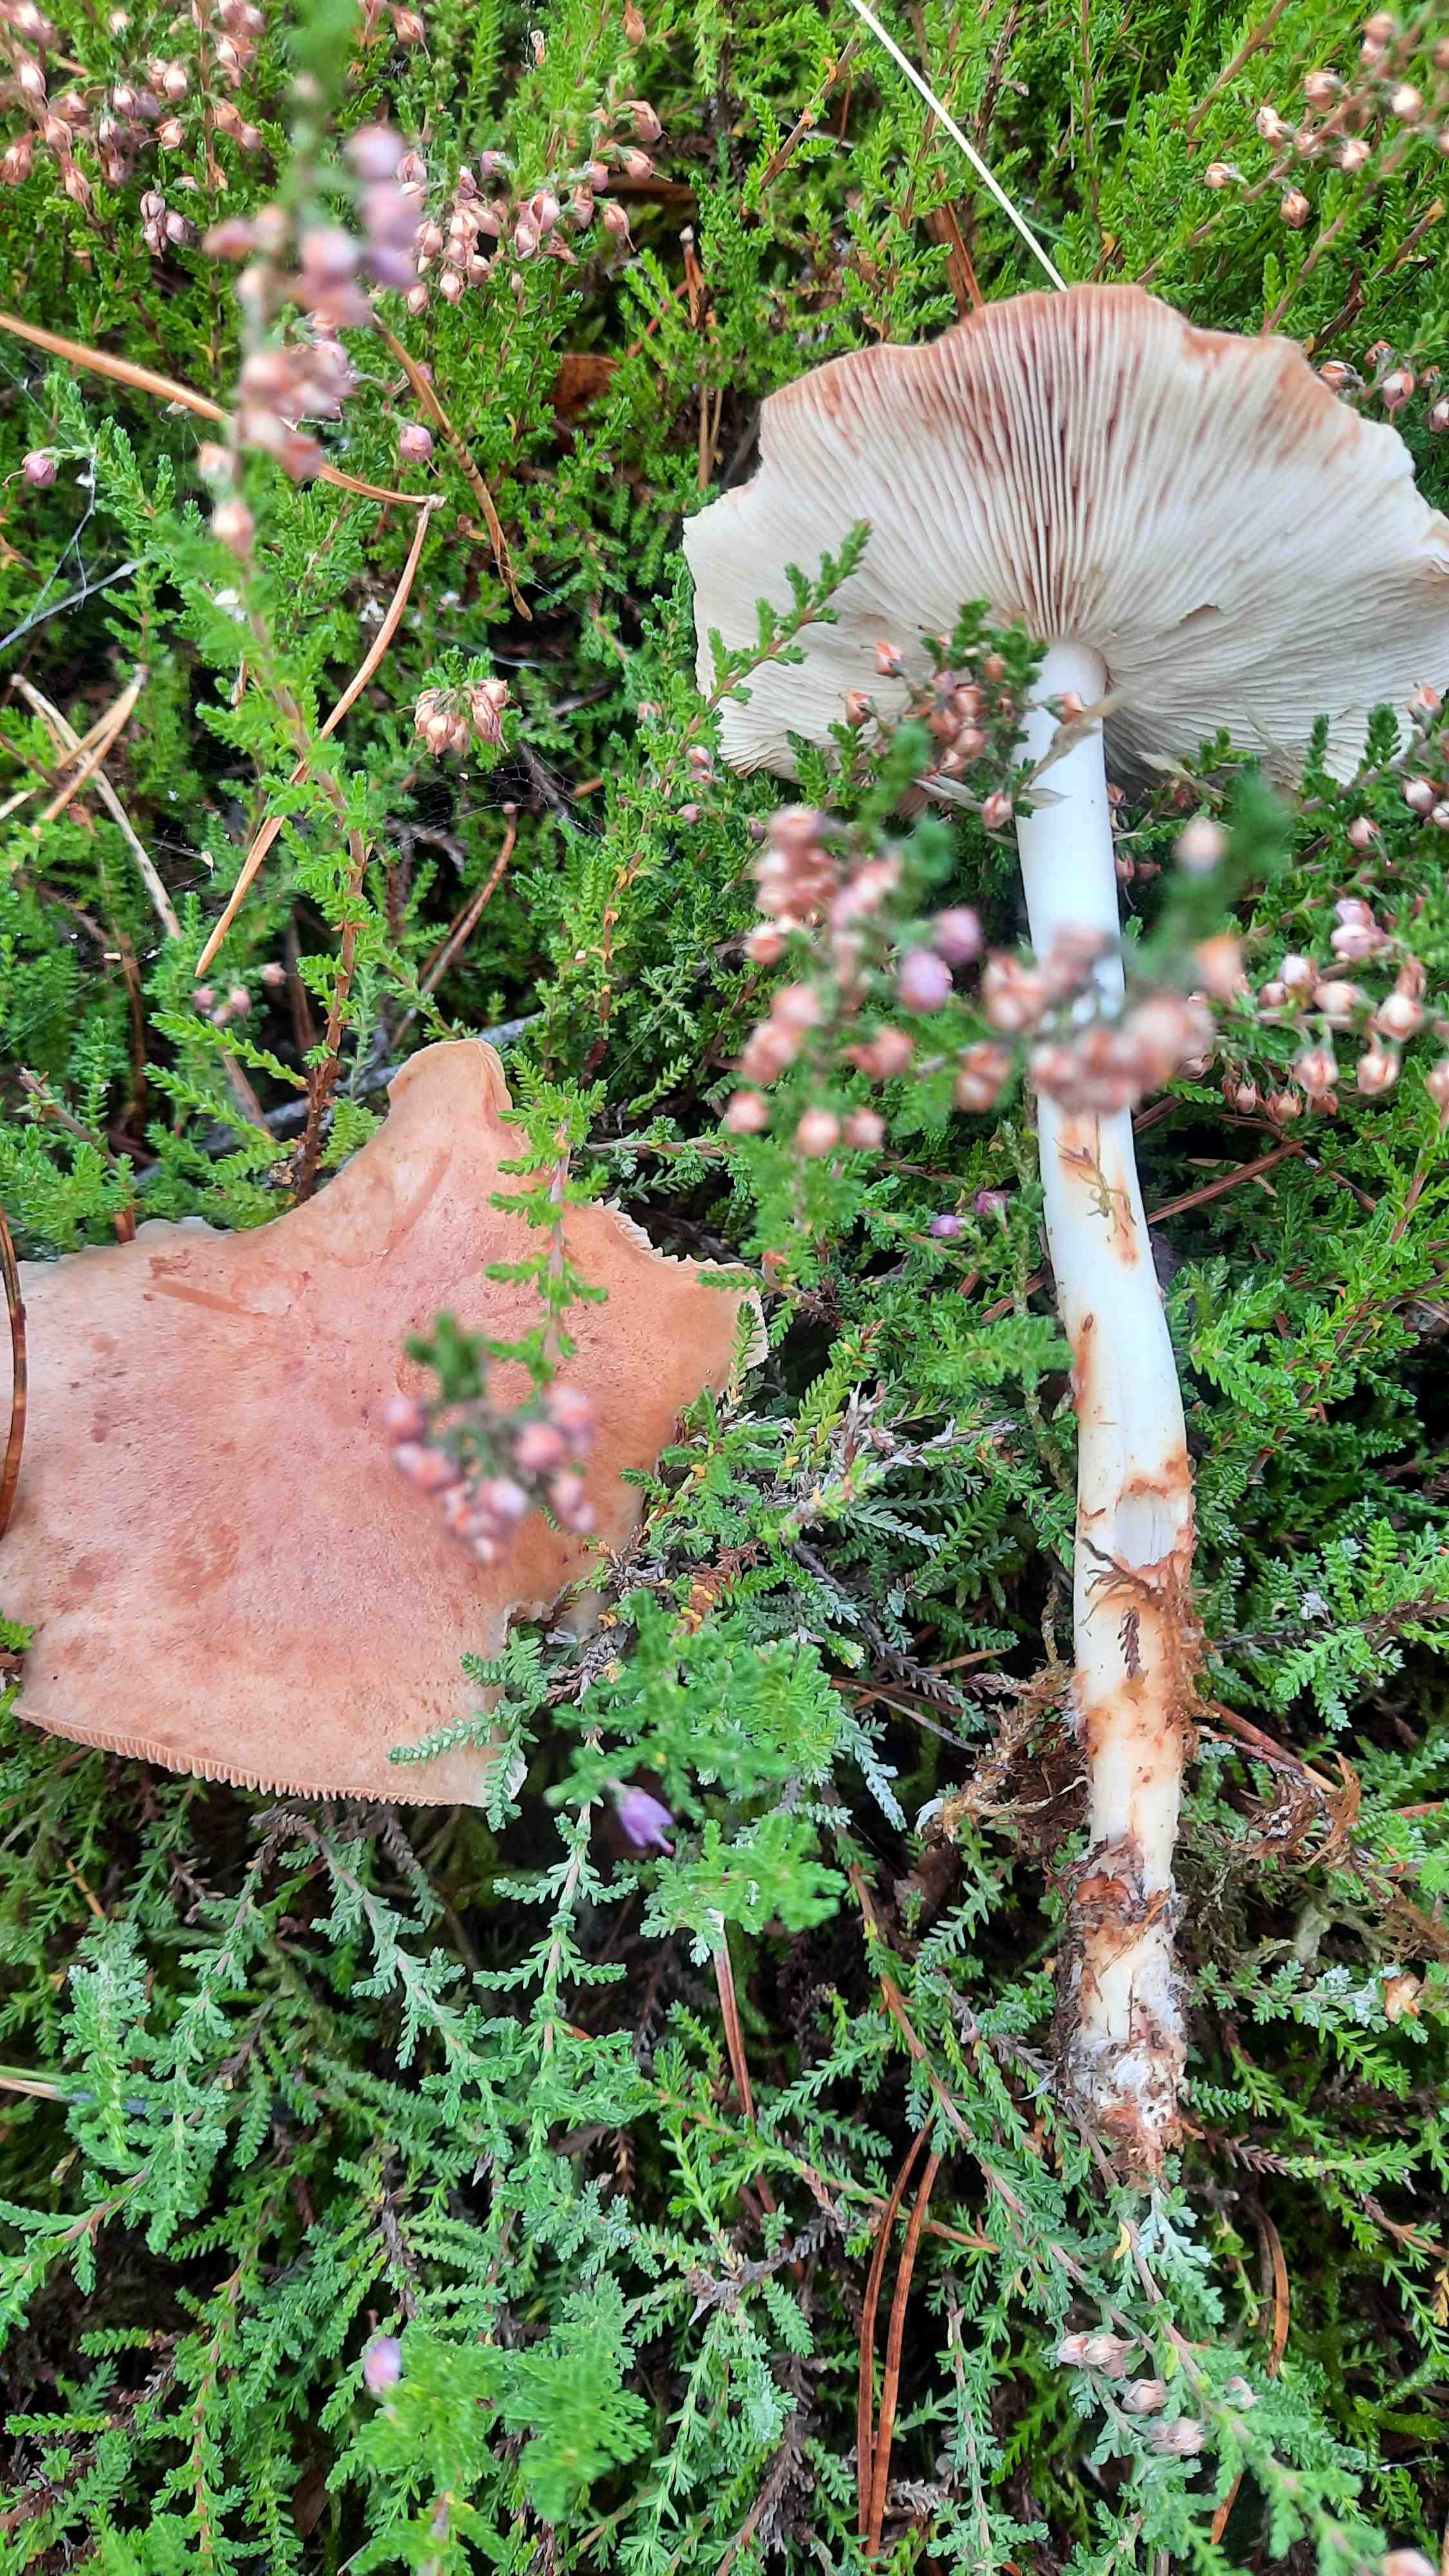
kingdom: Fungi
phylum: Basidiomycota
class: Agaricomycetes
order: Agaricales
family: Omphalotaceae
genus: Rhodocollybia
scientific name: Rhodocollybia maculata
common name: plettet fladhat
